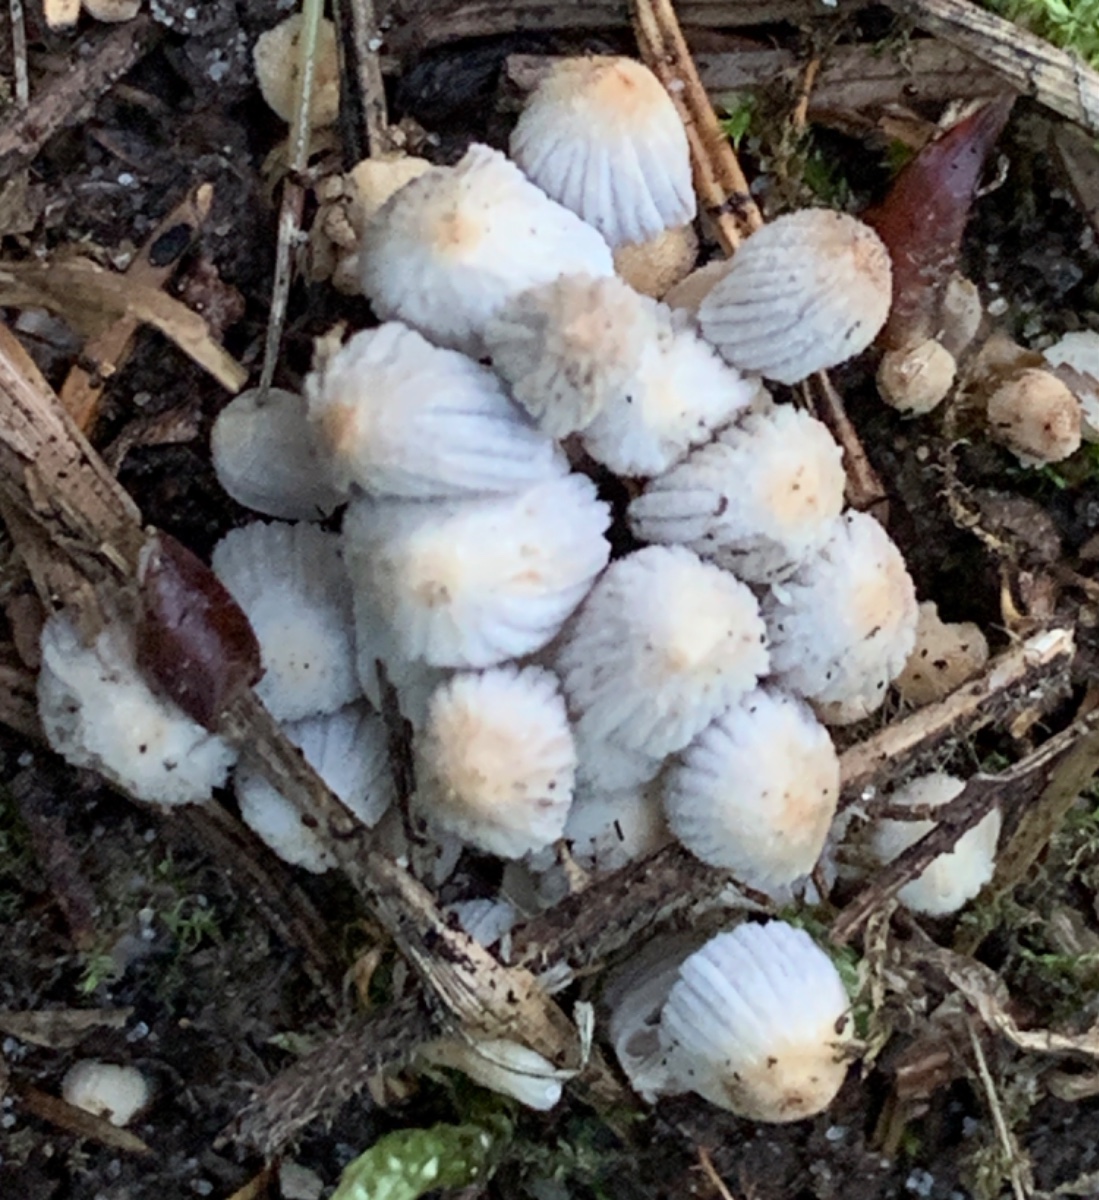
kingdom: Fungi
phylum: Basidiomycota
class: Agaricomycetes
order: Agaricales
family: Psathyrellaceae
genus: Coprinellus
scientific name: Coprinellus disseminatus
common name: bredsået blækhat
